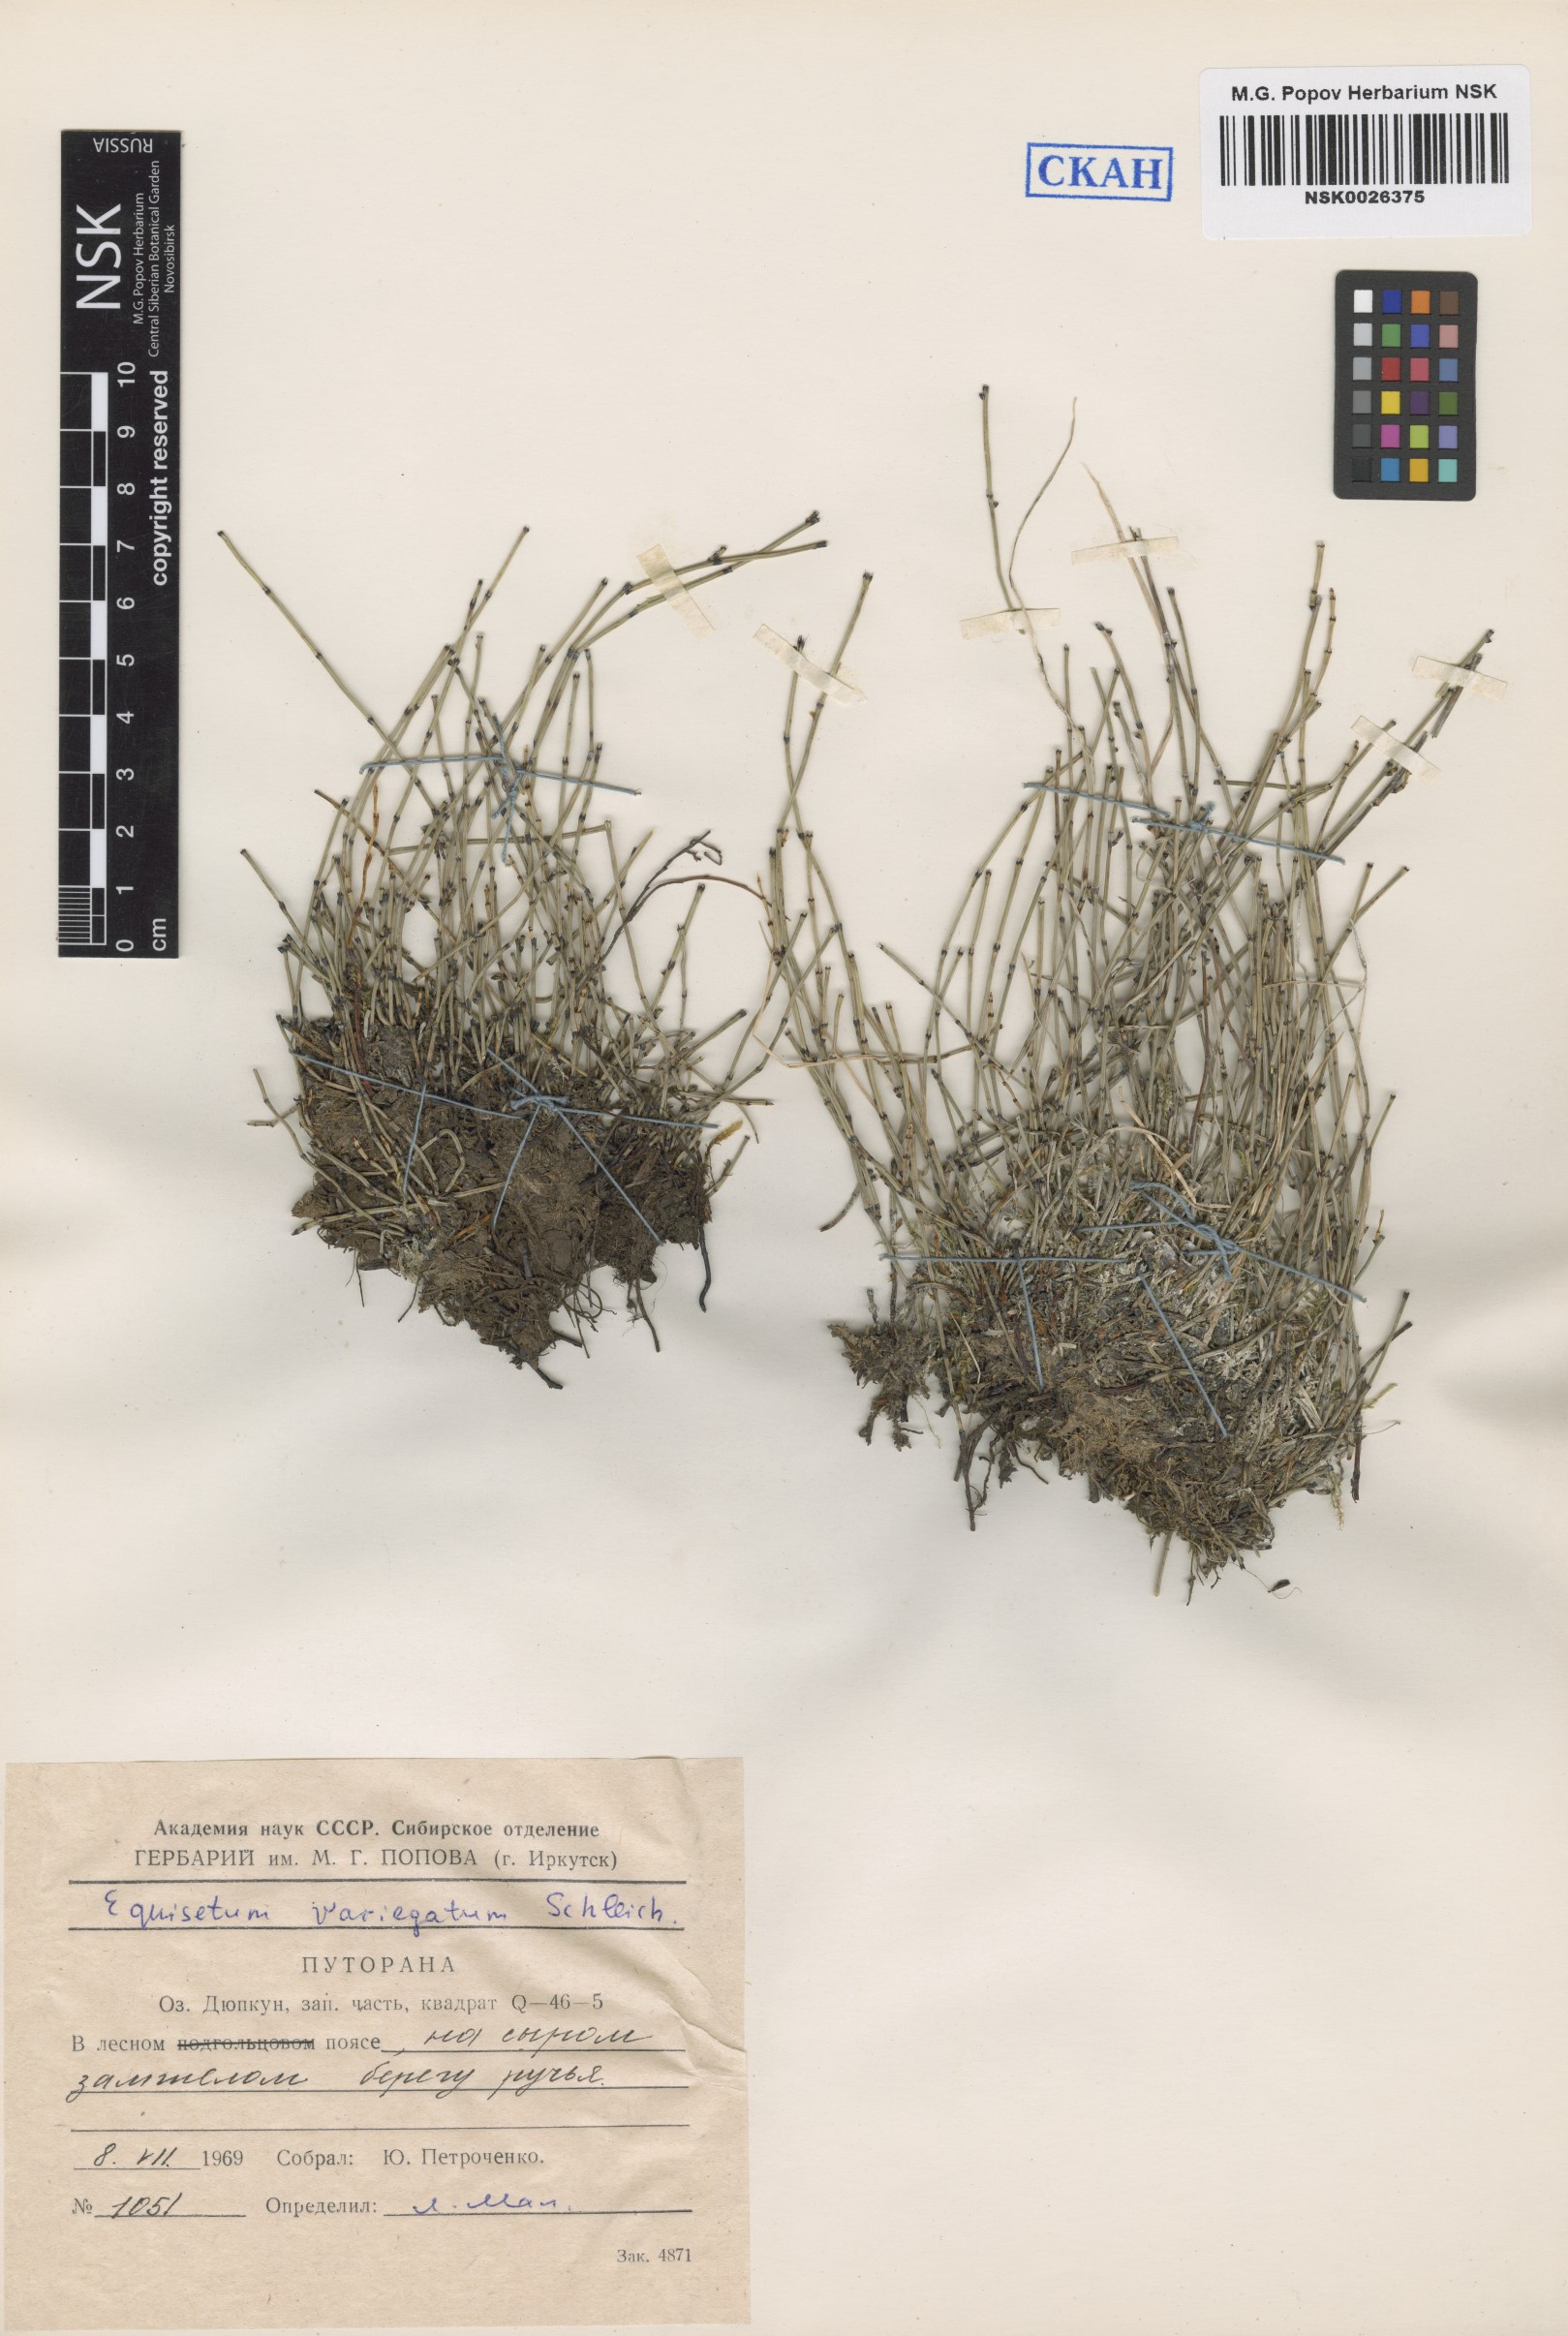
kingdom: Plantae
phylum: Tracheophyta
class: Polypodiopsida
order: Equisetales
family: Equisetaceae
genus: Equisetum
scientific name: Equisetum variegatum
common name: Variegated horsetail
